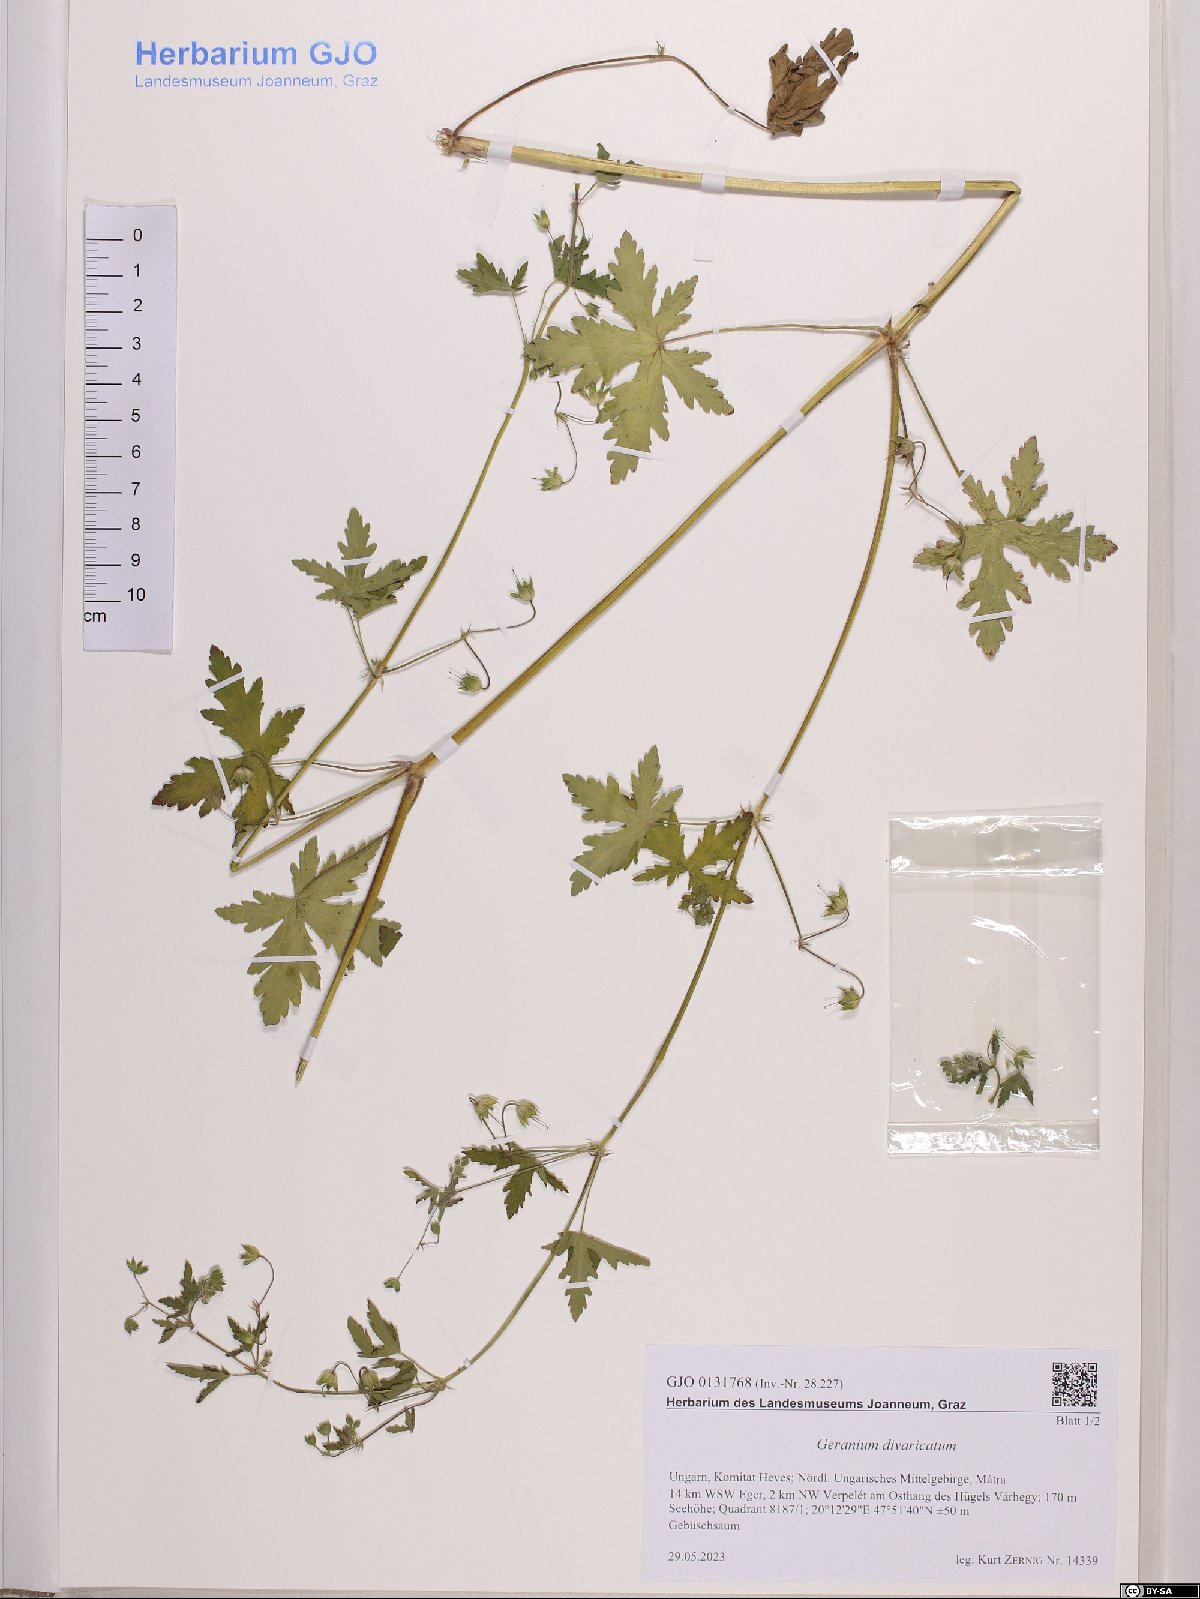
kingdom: Plantae
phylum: Tracheophyta
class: Magnoliopsida
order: Geraniales
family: Geraniaceae
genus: Geranium
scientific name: Geranium divaricatum
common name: Spreading crane's-bill
